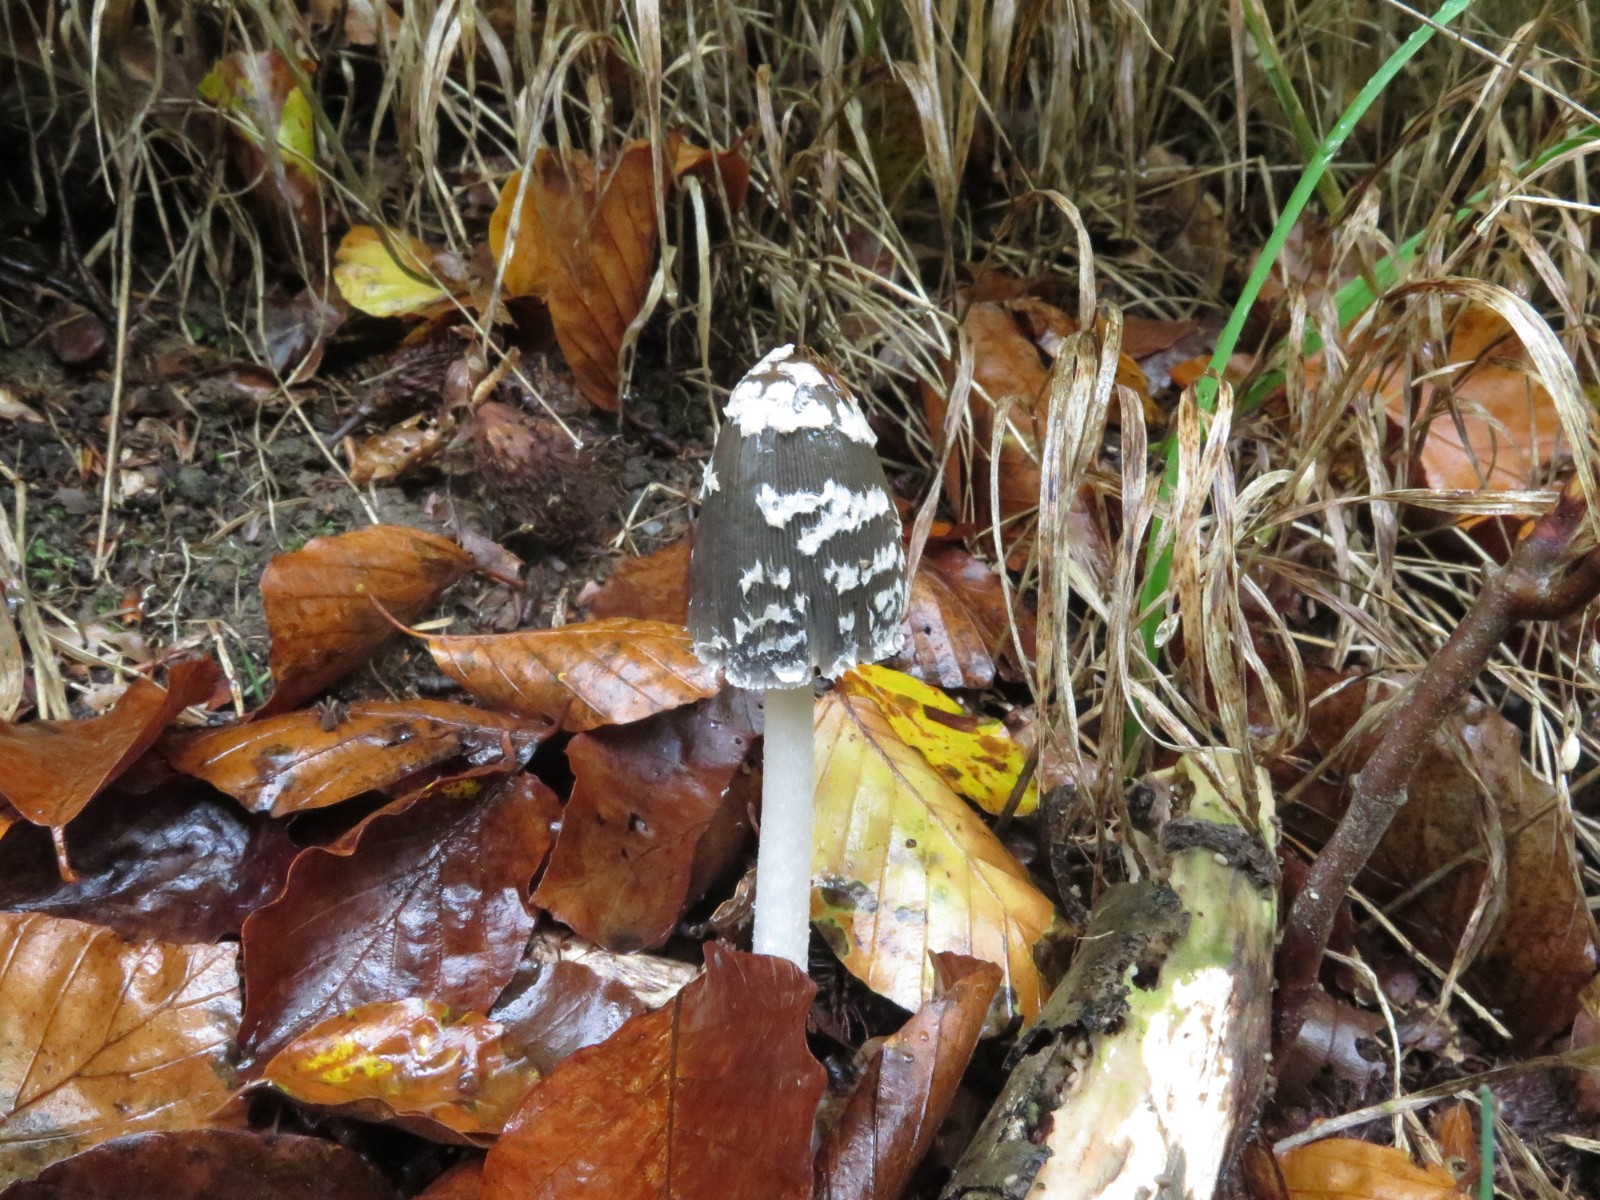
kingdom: Fungi
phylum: Basidiomycota
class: Agaricomycetes
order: Agaricales
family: Psathyrellaceae
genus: Coprinopsis
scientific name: Coprinopsis picacea
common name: skade-blækhat
